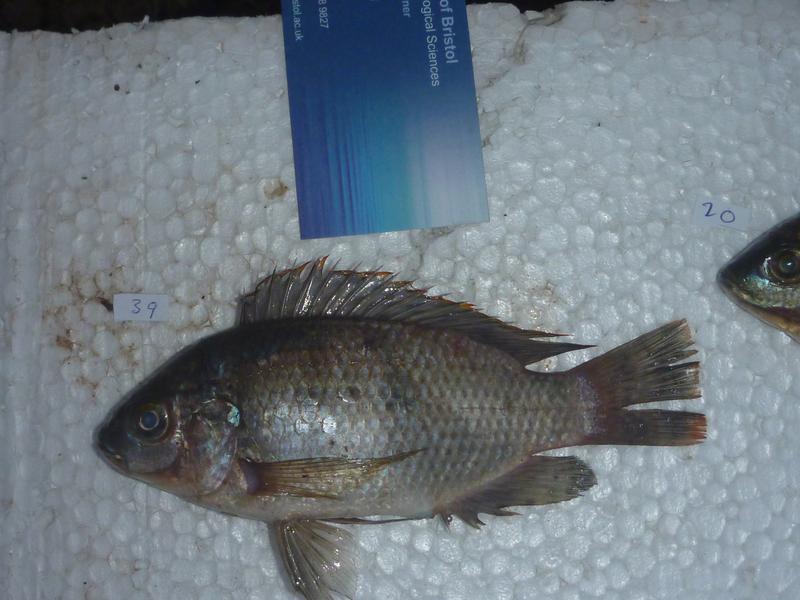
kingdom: Animalia
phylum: Chordata
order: Perciformes
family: Cichlidae
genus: Oreochromis
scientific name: Oreochromis upembae
